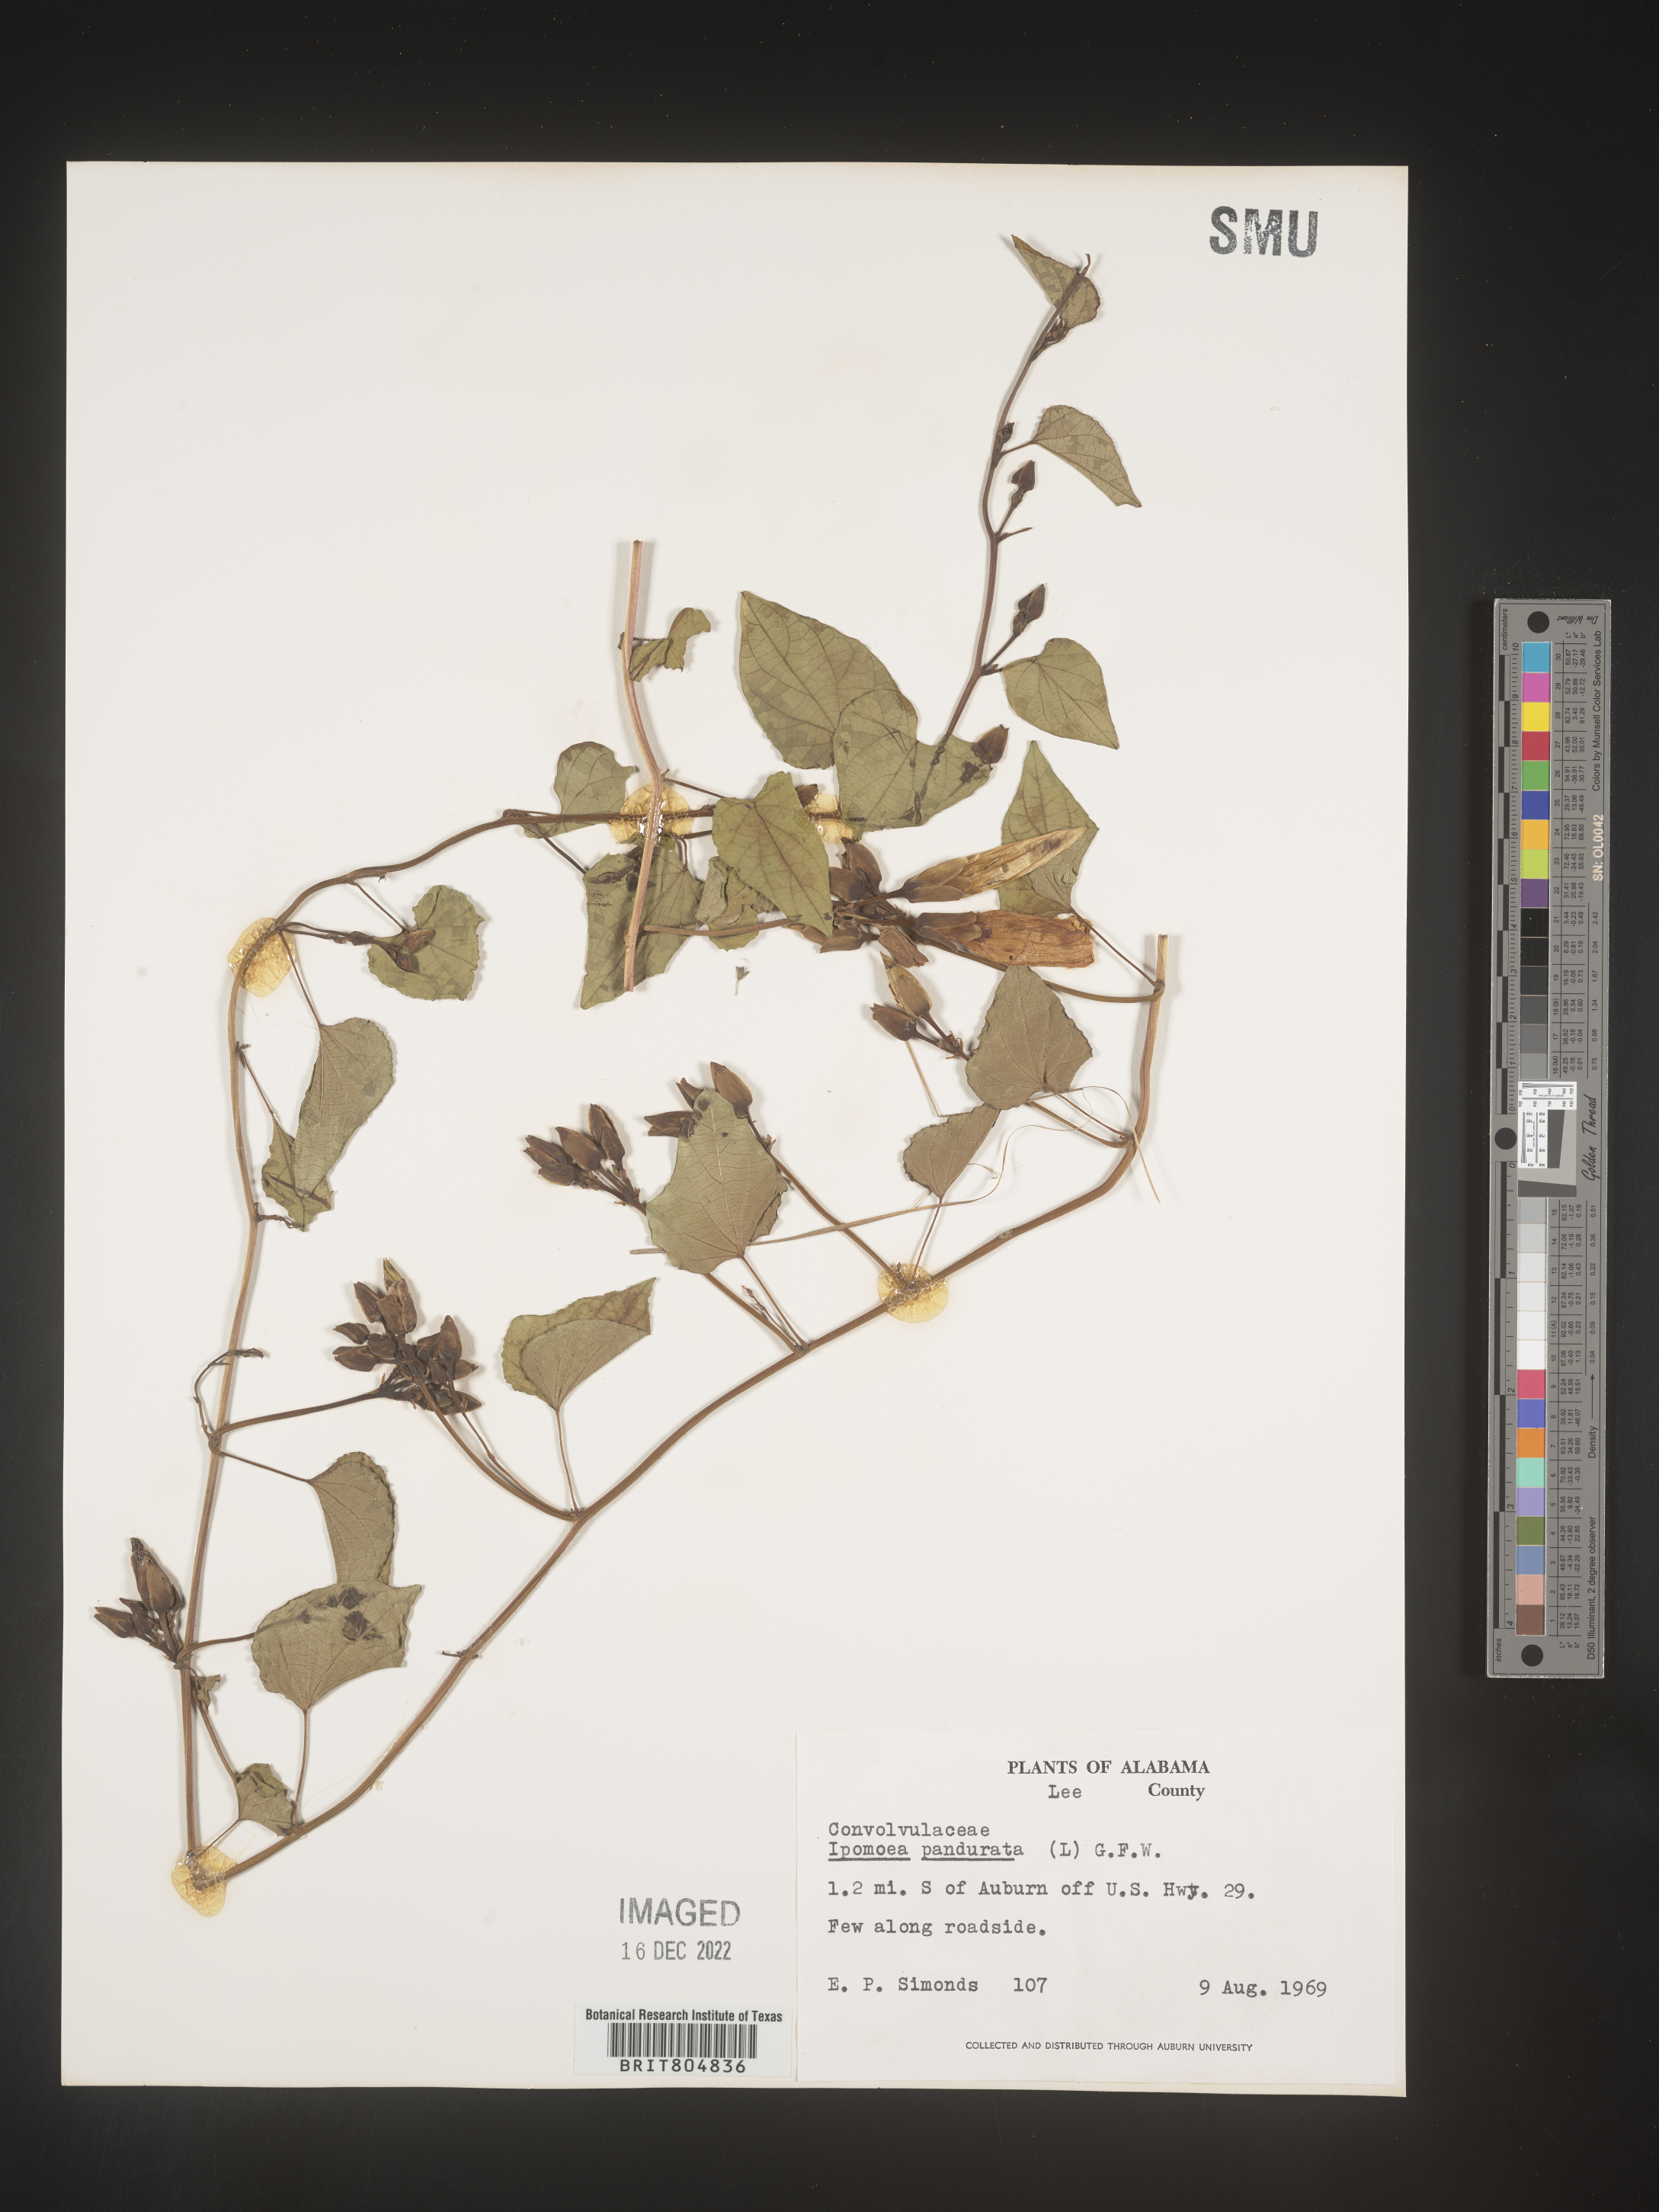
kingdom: Plantae
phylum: Tracheophyta
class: Magnoliopsida
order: Solanales
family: Convolvulaceae
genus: Ipomoea
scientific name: Ipomoea pandurata
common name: Man-of-the-earth
